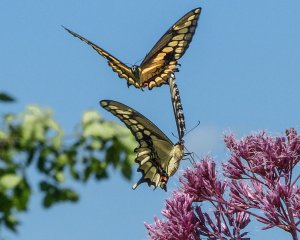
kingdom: Animalia
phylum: Arthropoda
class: Insecta
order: Lepidoptera
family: Papilionidae
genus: Papilio
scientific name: Papilio cresphontes
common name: Eastern Giant Swallowtail
